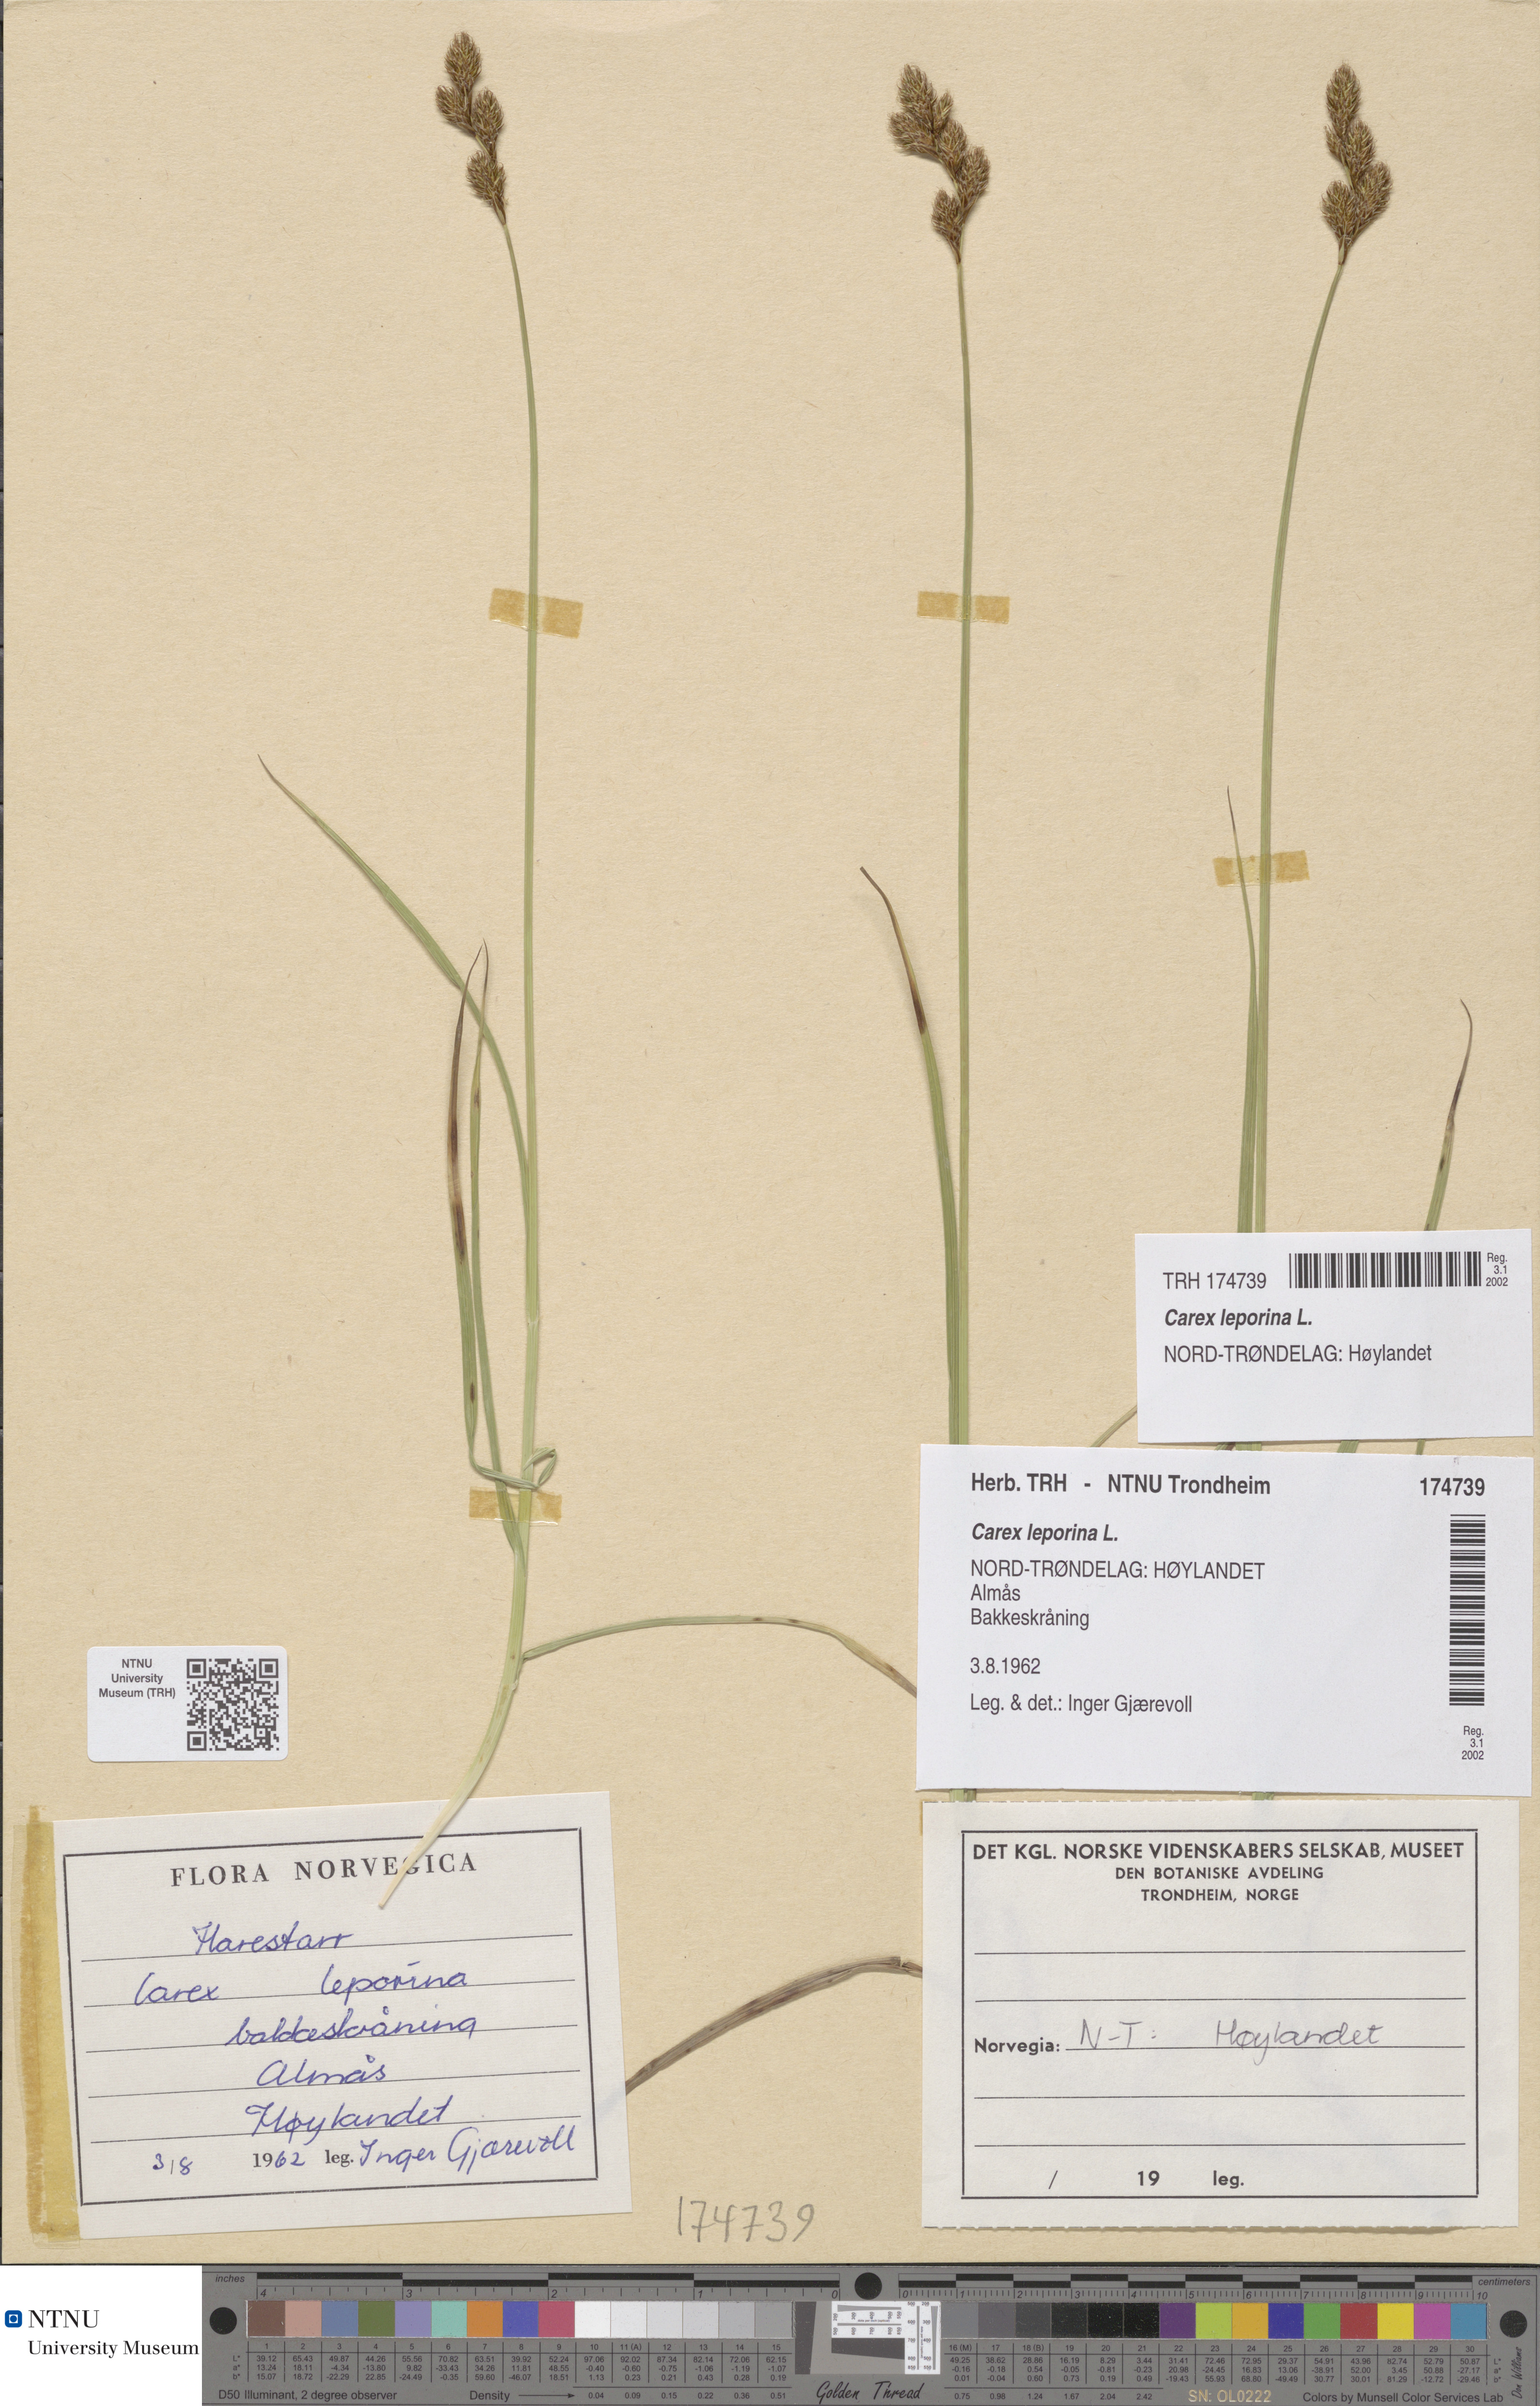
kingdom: Plantae
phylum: Tracheophyta
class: Liliopsida
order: Poales
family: Cyperaceae
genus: Carex
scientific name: Carex leporina
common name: Oval sedge
